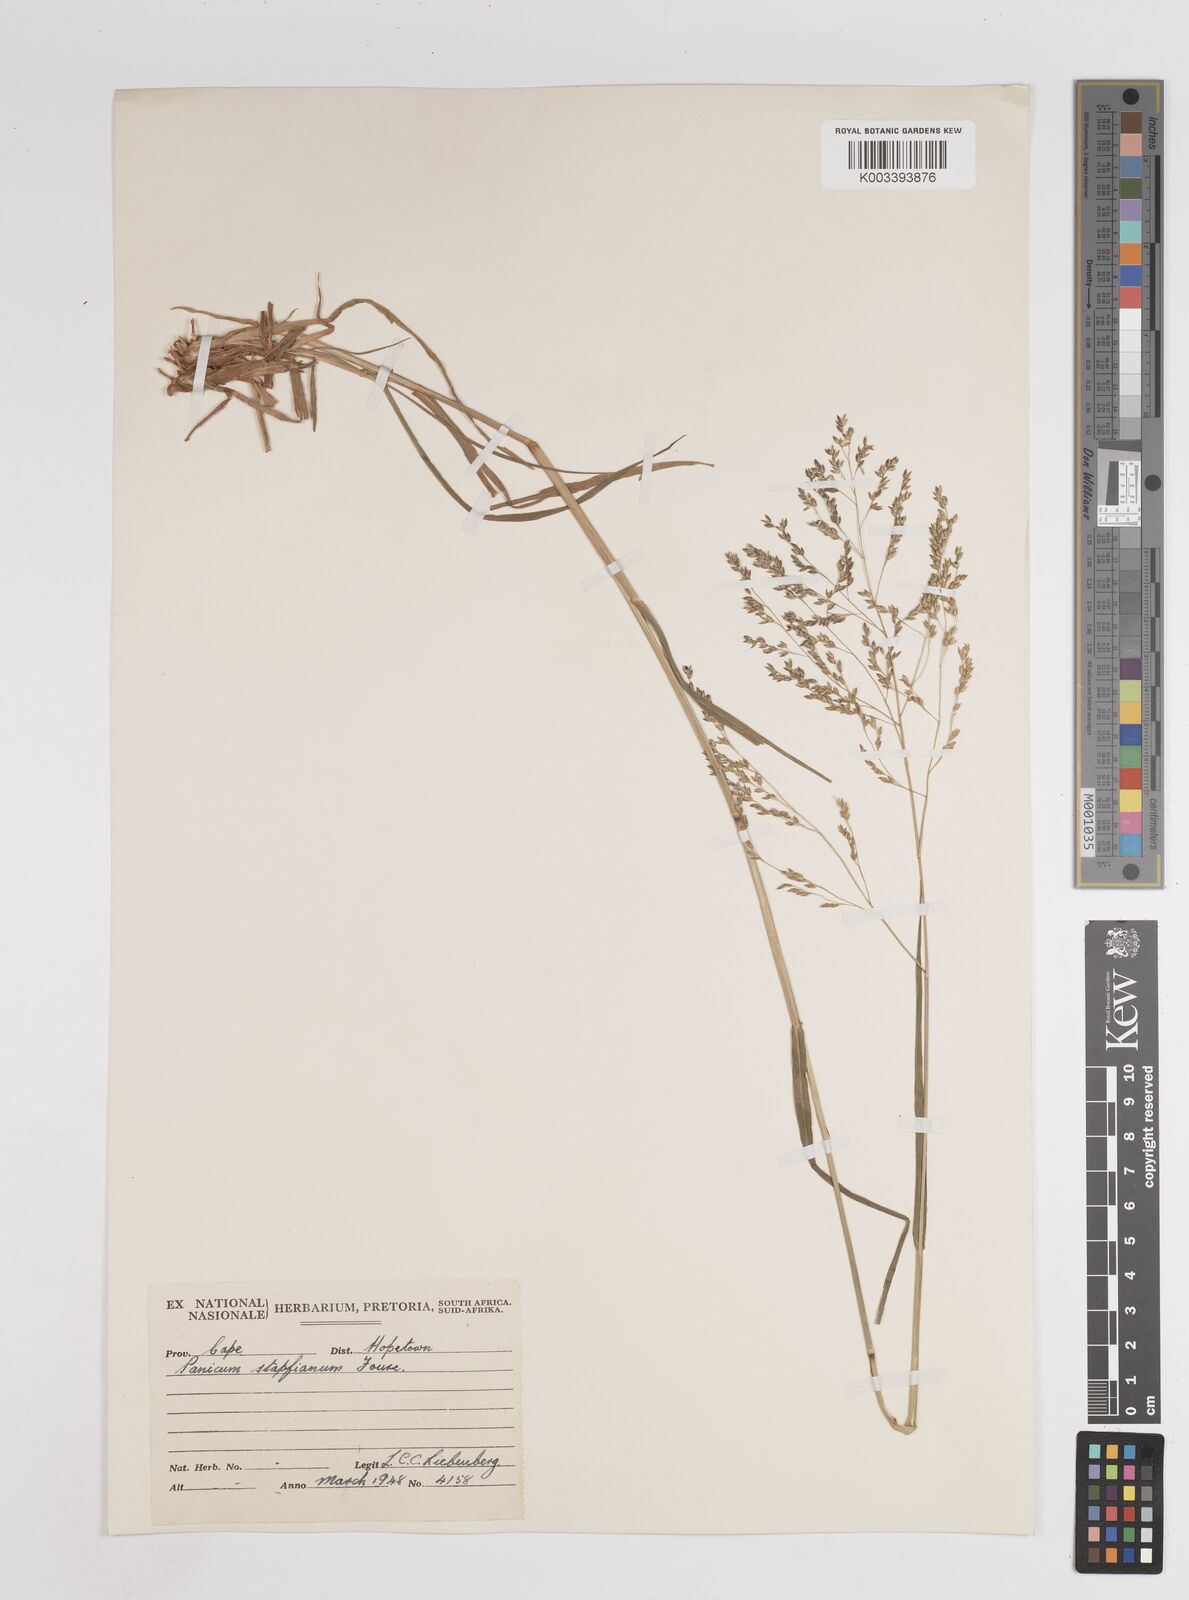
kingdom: Plantae
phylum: Tracheophyta
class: Liliopsida
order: Poales
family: Poaceae
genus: Panicum
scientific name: Panicum stapfianum
